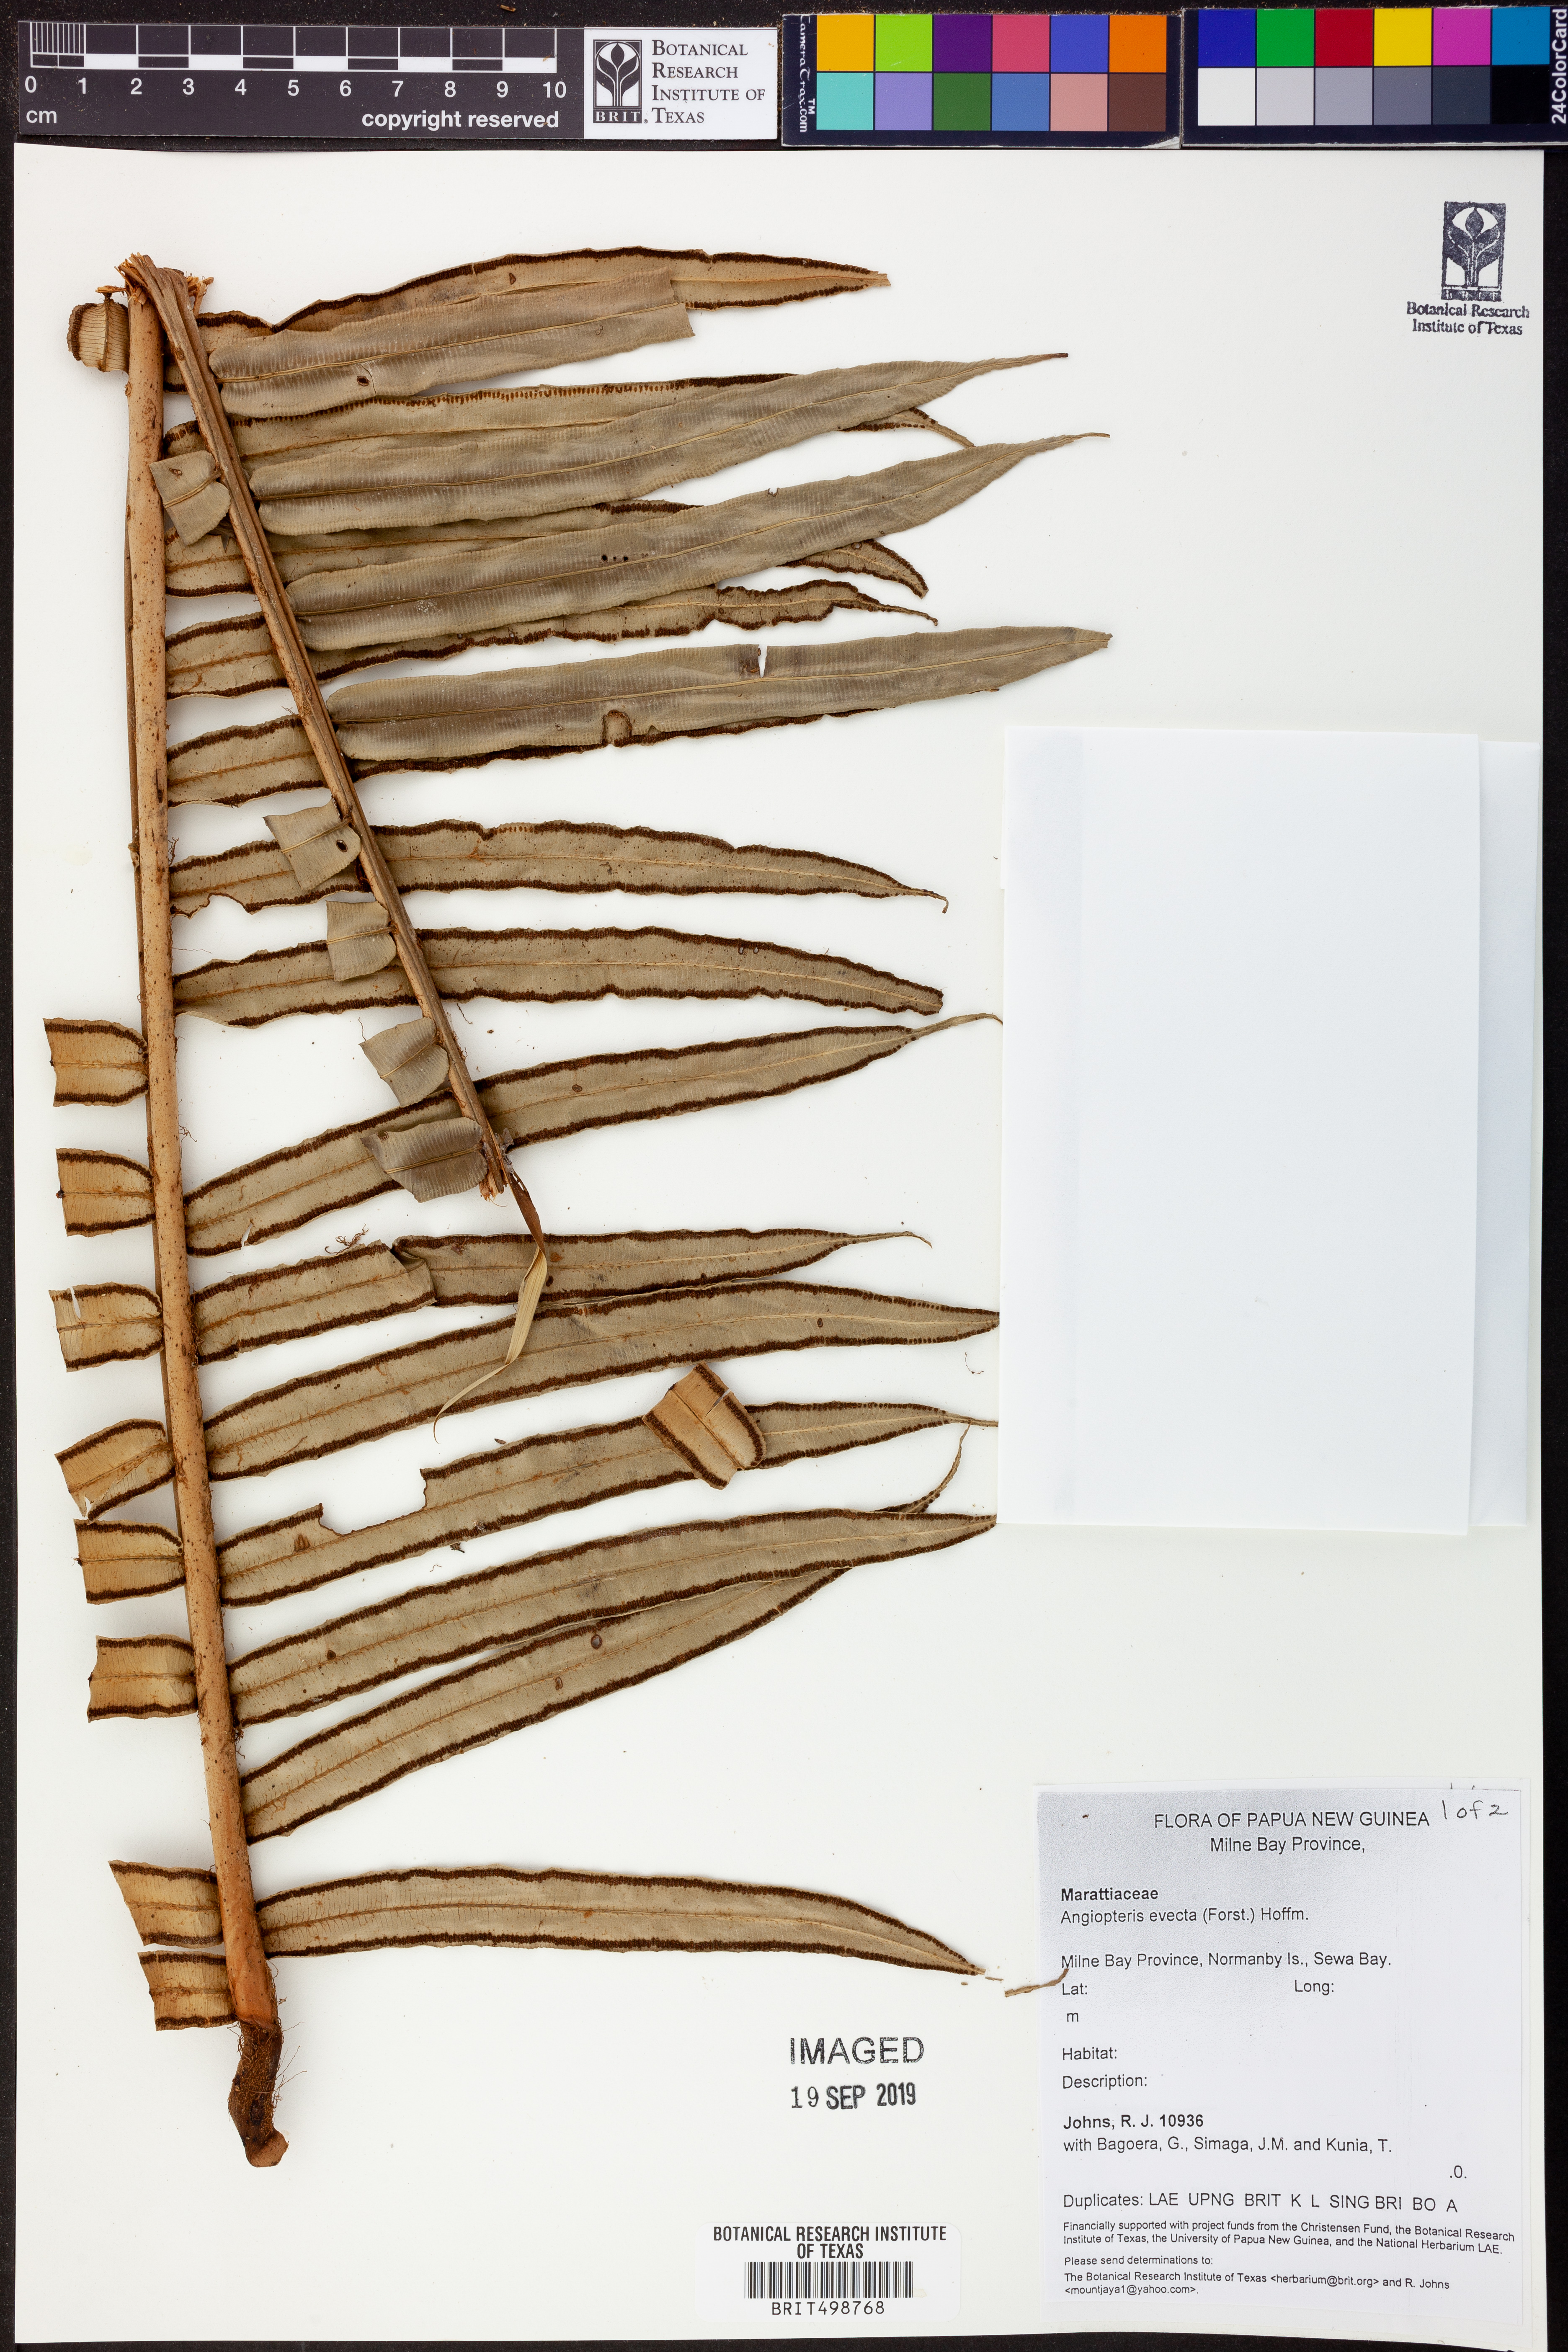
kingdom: Plantae
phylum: Tracheophyta
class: Polypodiopsida
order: Marattiales
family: Marattiaceae
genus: Angiopteris
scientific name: Angiopteris evecta
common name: Mule's-foot fern
